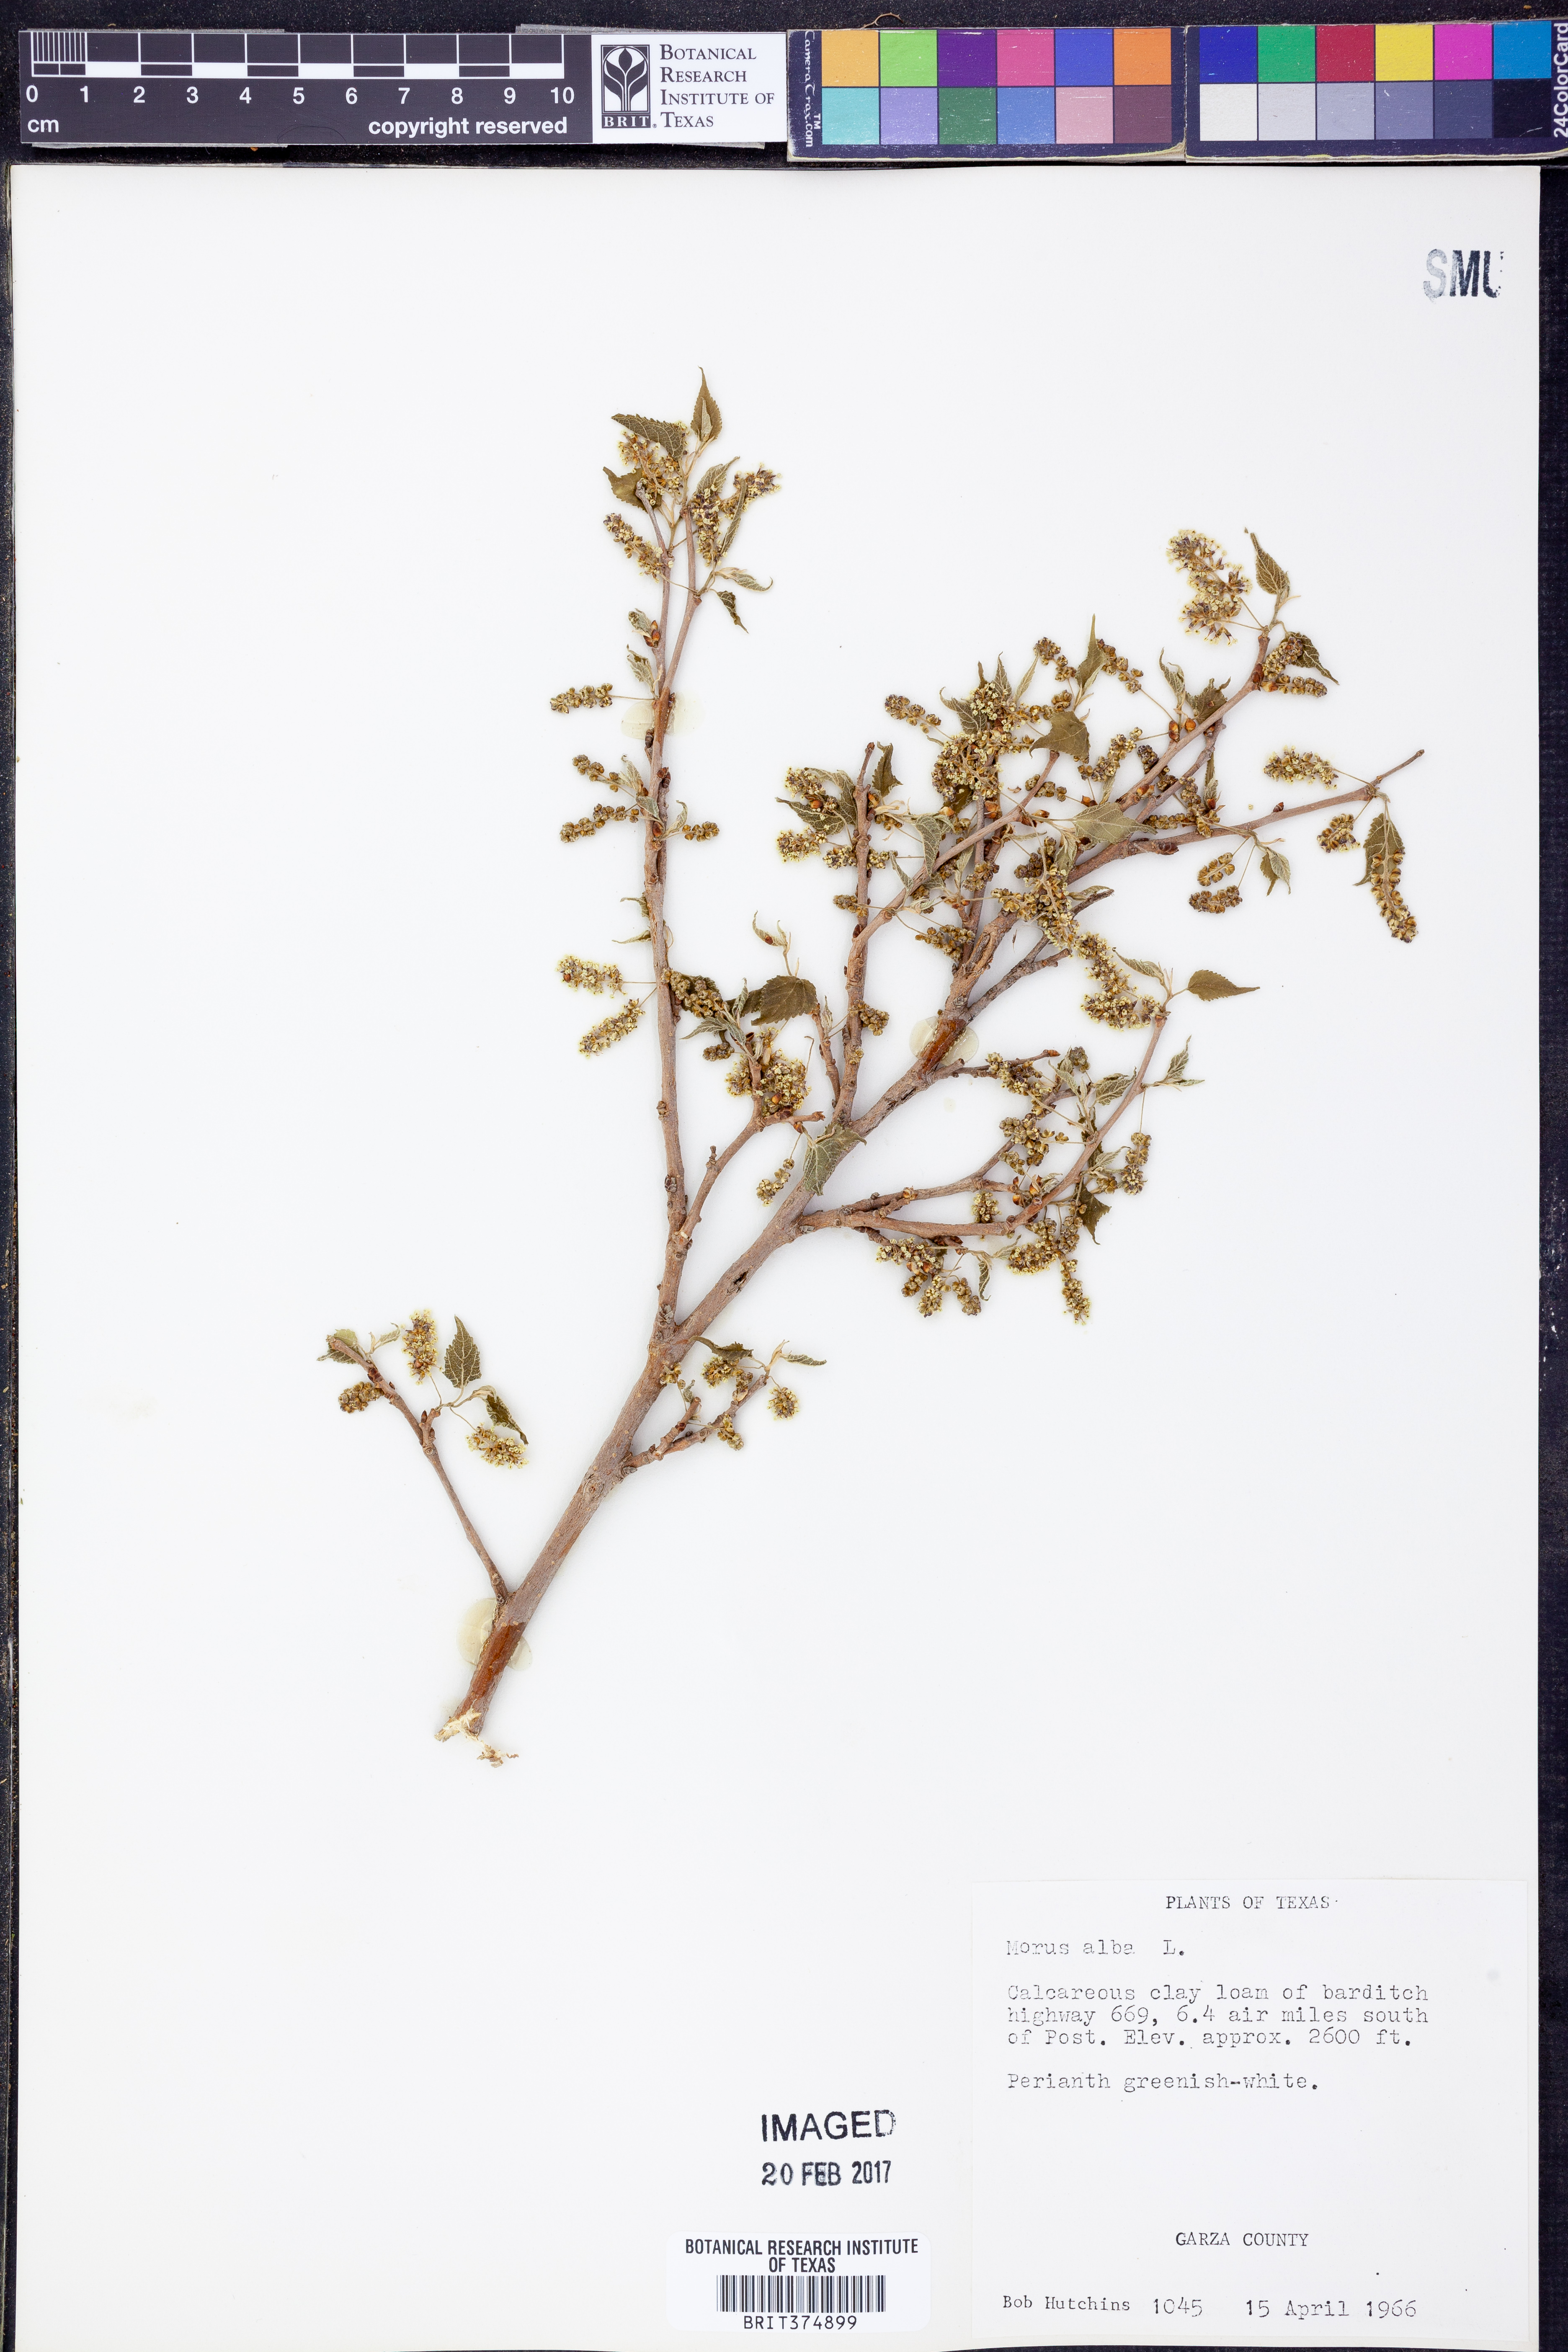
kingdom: Plantae
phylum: Tracheophyta
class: Magnoliopsida
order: Rosales
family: Moraceae
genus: Morus
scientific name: Morus alba
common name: White mulberry
